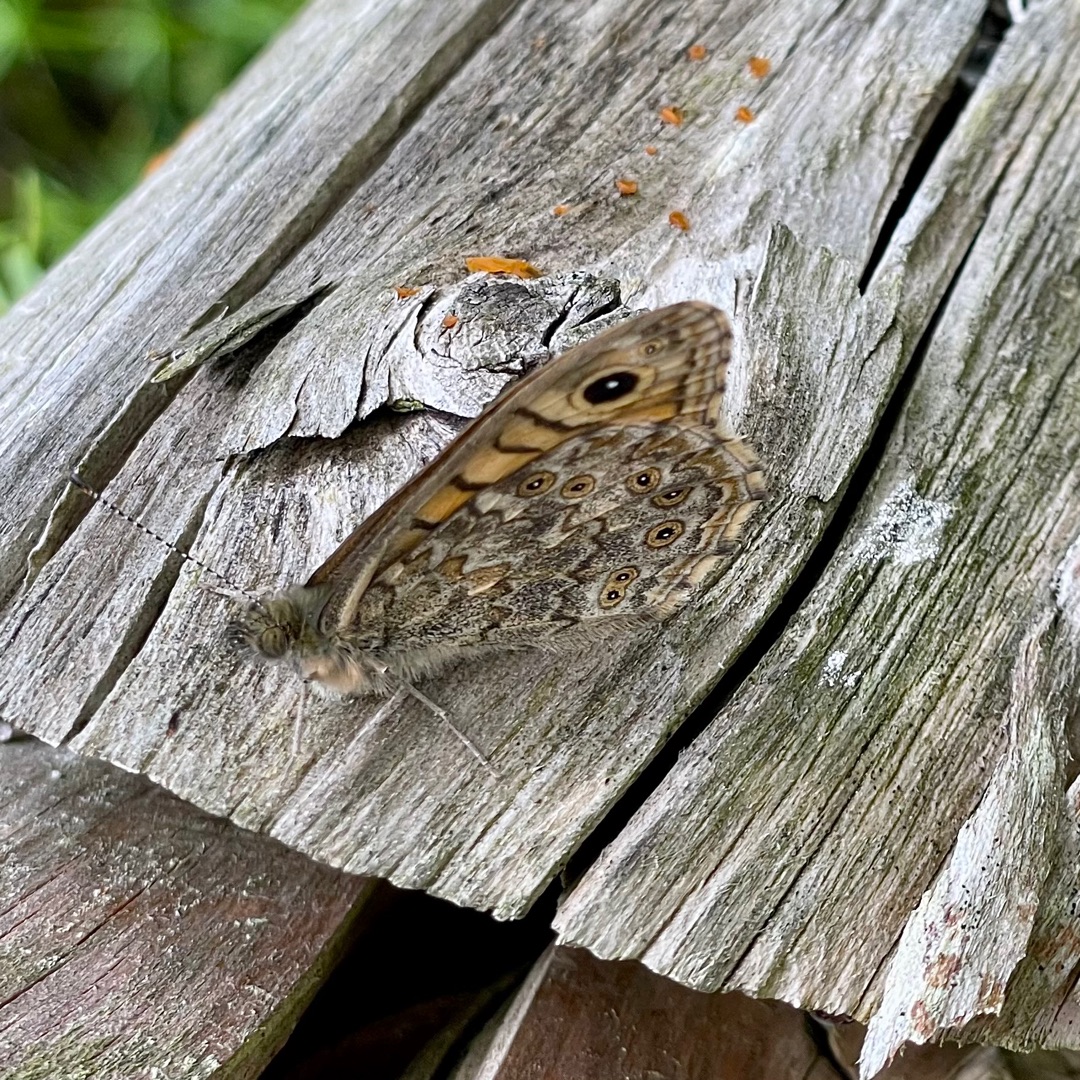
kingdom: Animalia
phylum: Arthropoda
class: Insecta
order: Lepidoptera
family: Nymphalidae
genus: Pararge
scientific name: Pararge Lasiommata megera
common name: Vejrandøje
